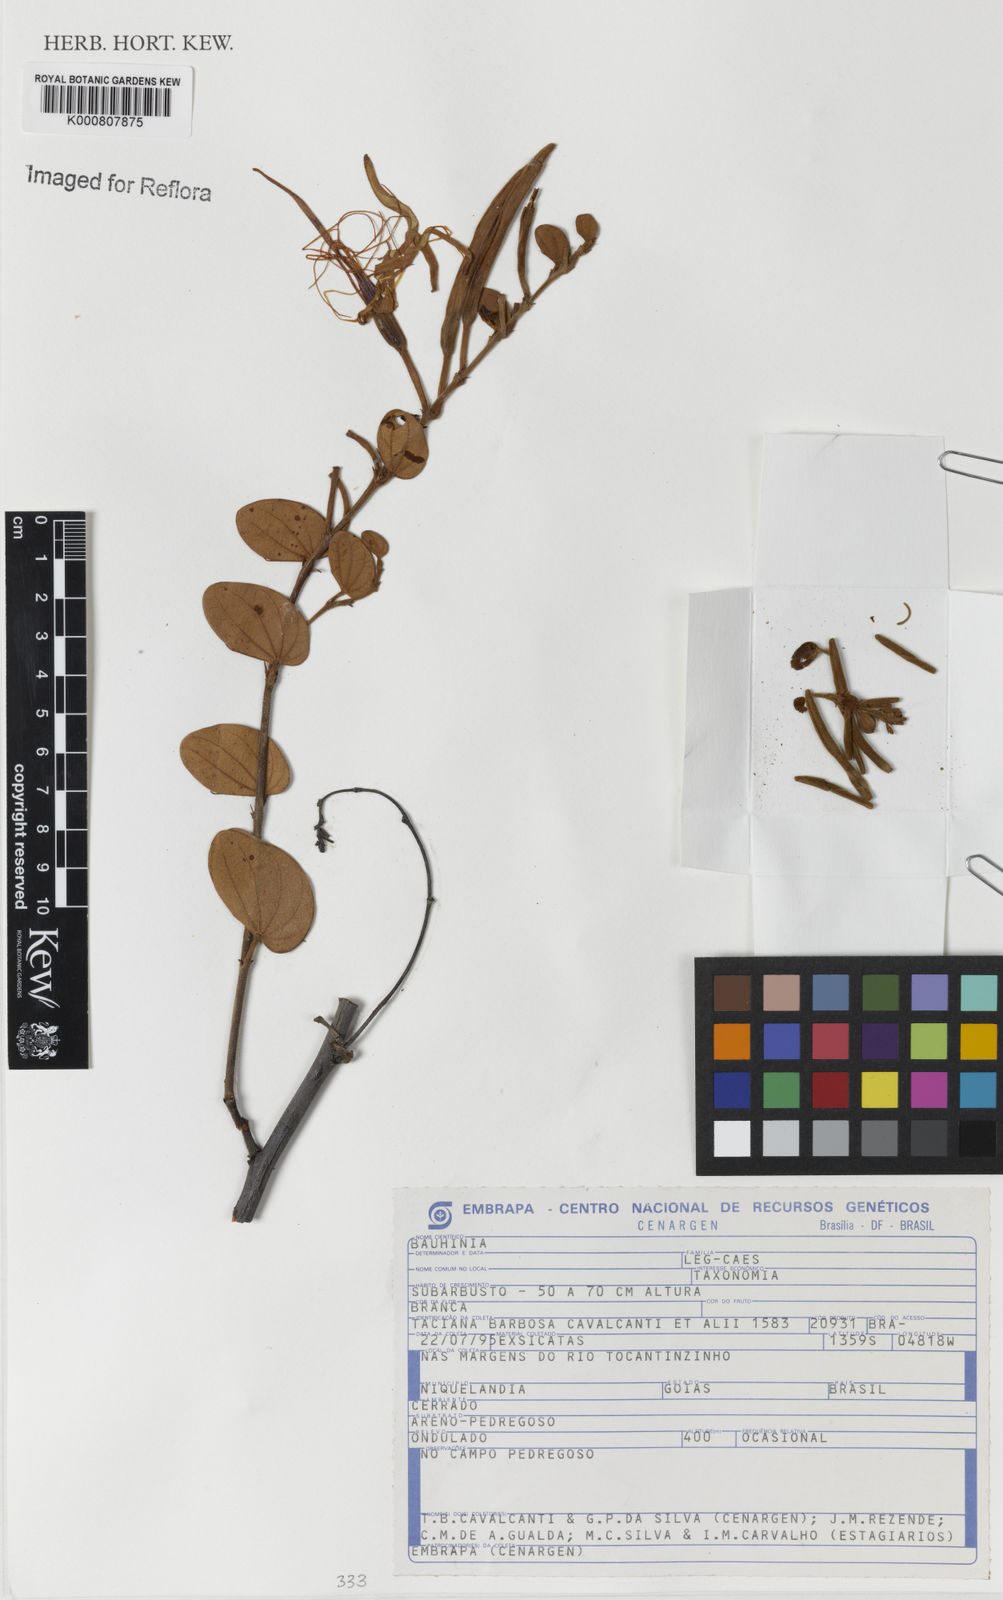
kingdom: Plantae
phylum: Tracheophyta
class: Magnoliopsida
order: Fabales
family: Fabaceae
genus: Bauhinia
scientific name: Bauhinia
